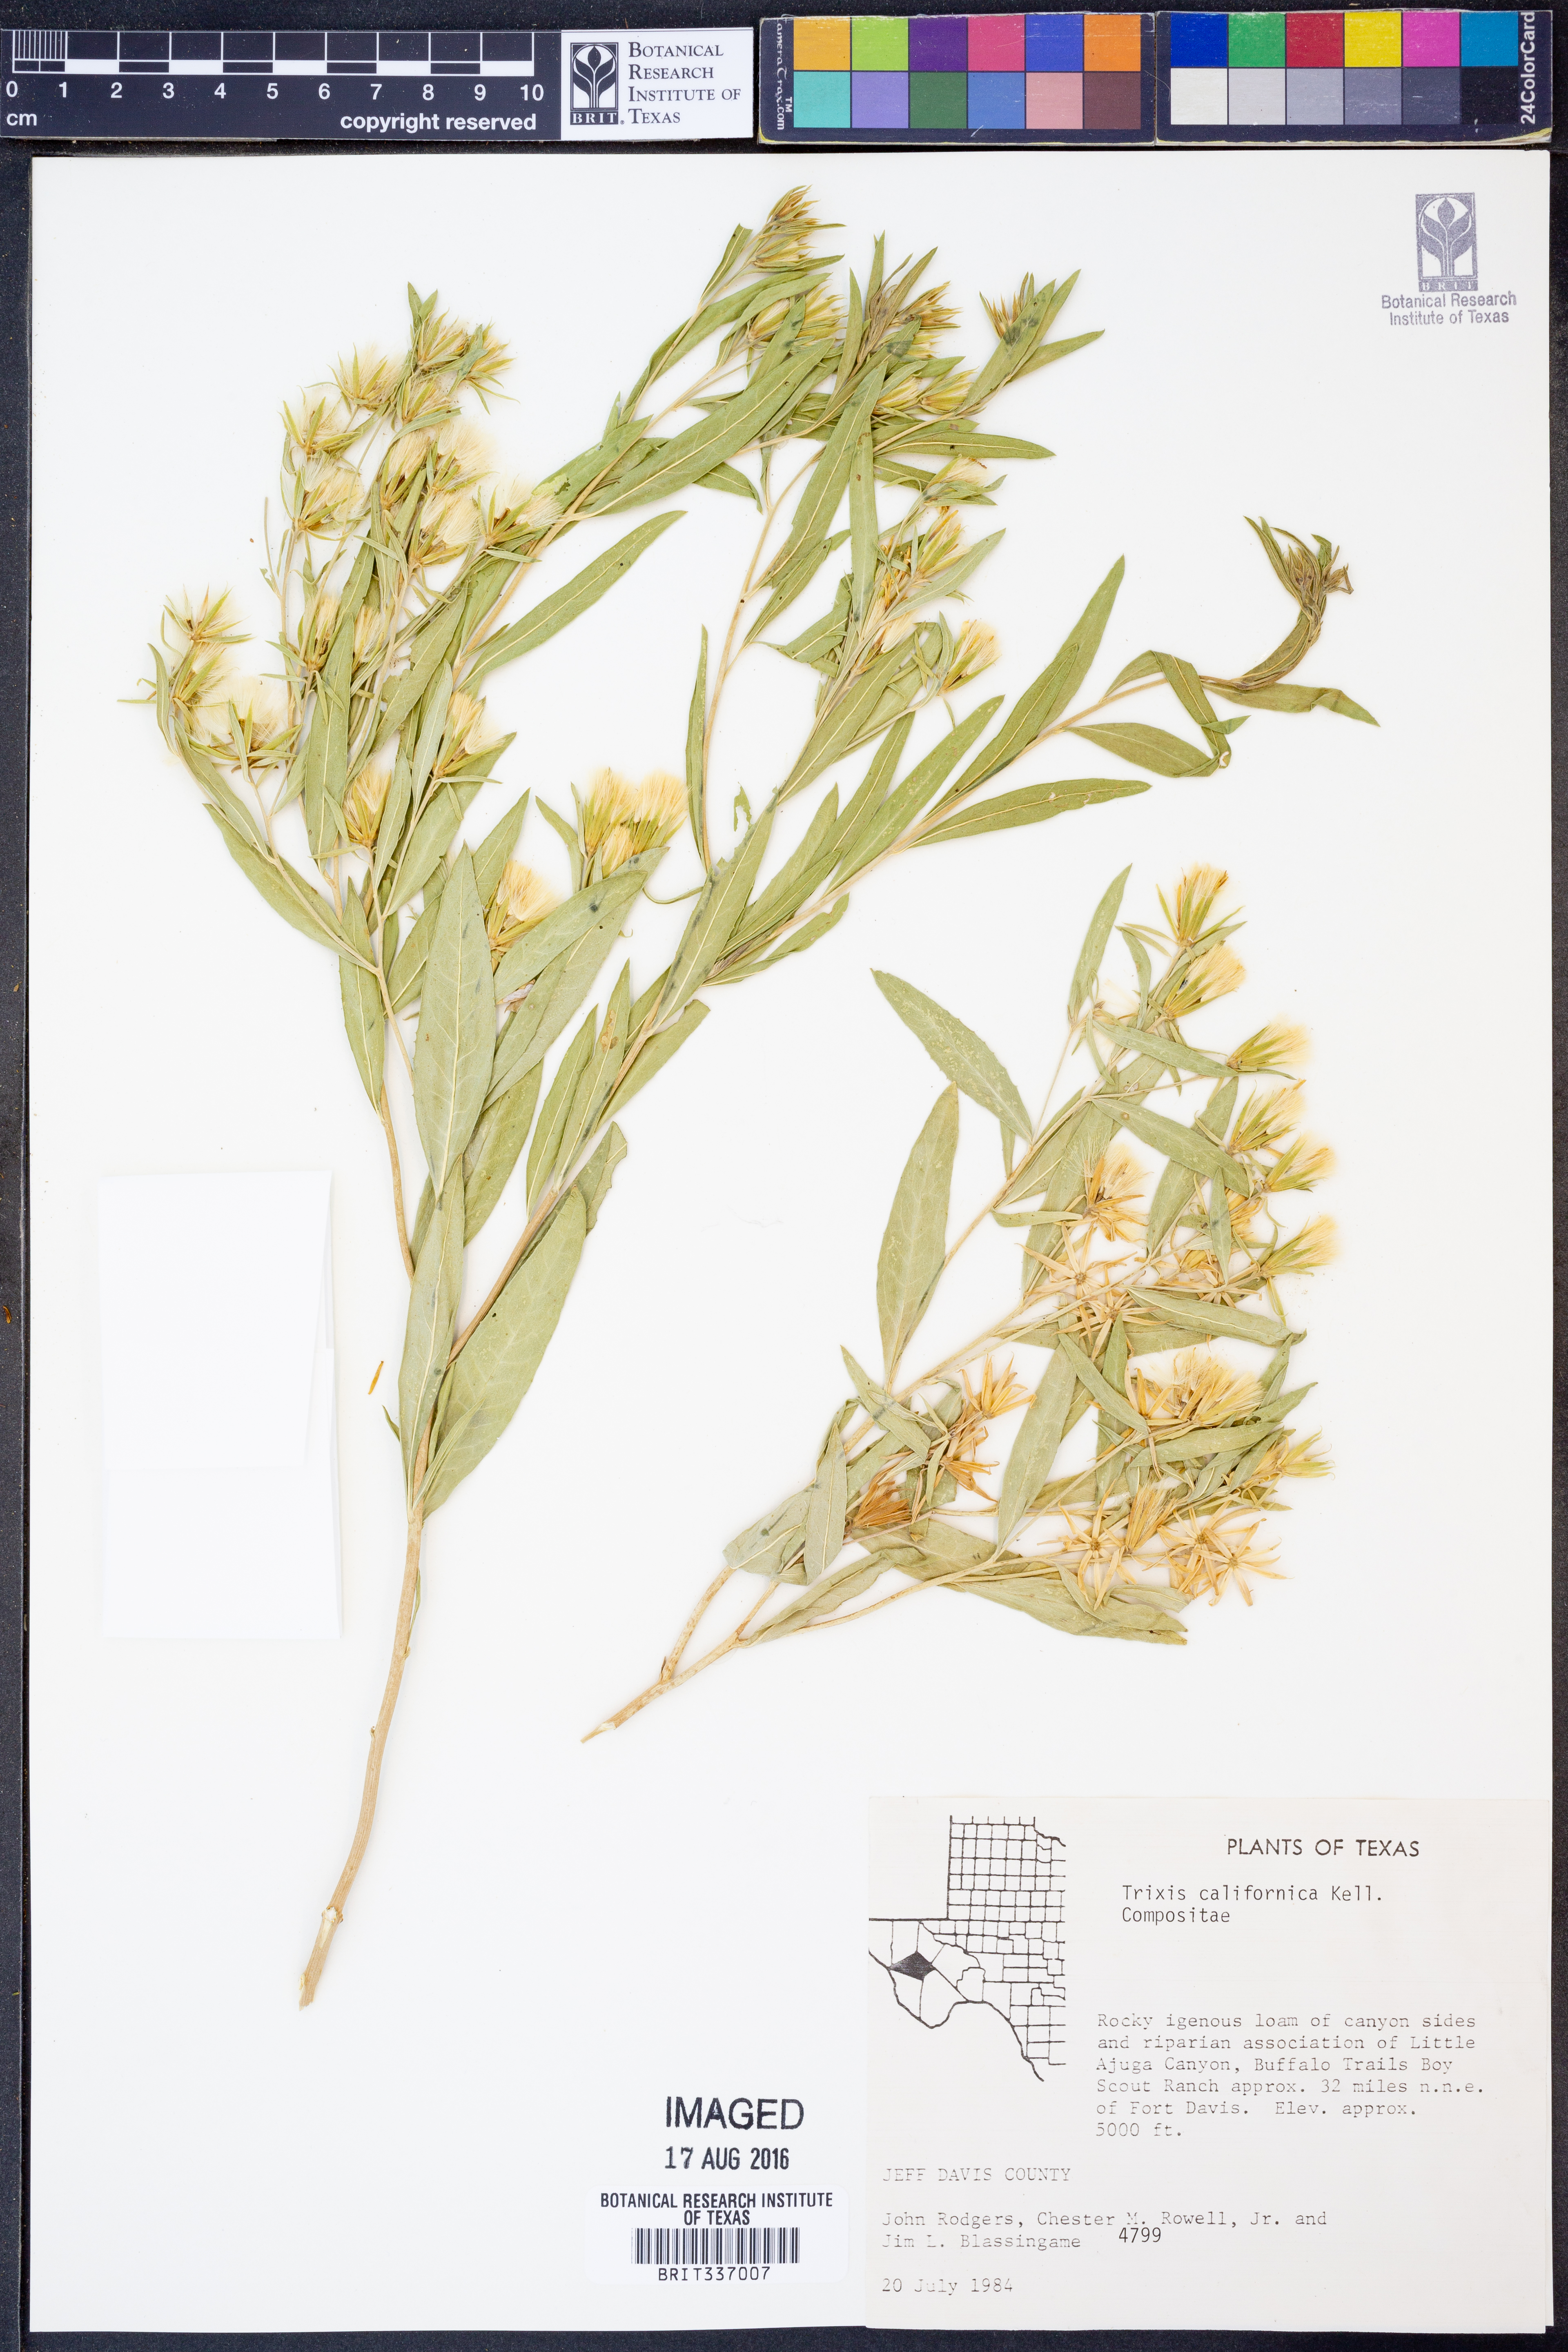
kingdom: Plantae
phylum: Tracheophyta
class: Magnoliopsida
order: Asterales
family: Asteraceae
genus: Trixis
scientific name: Trixis californica
